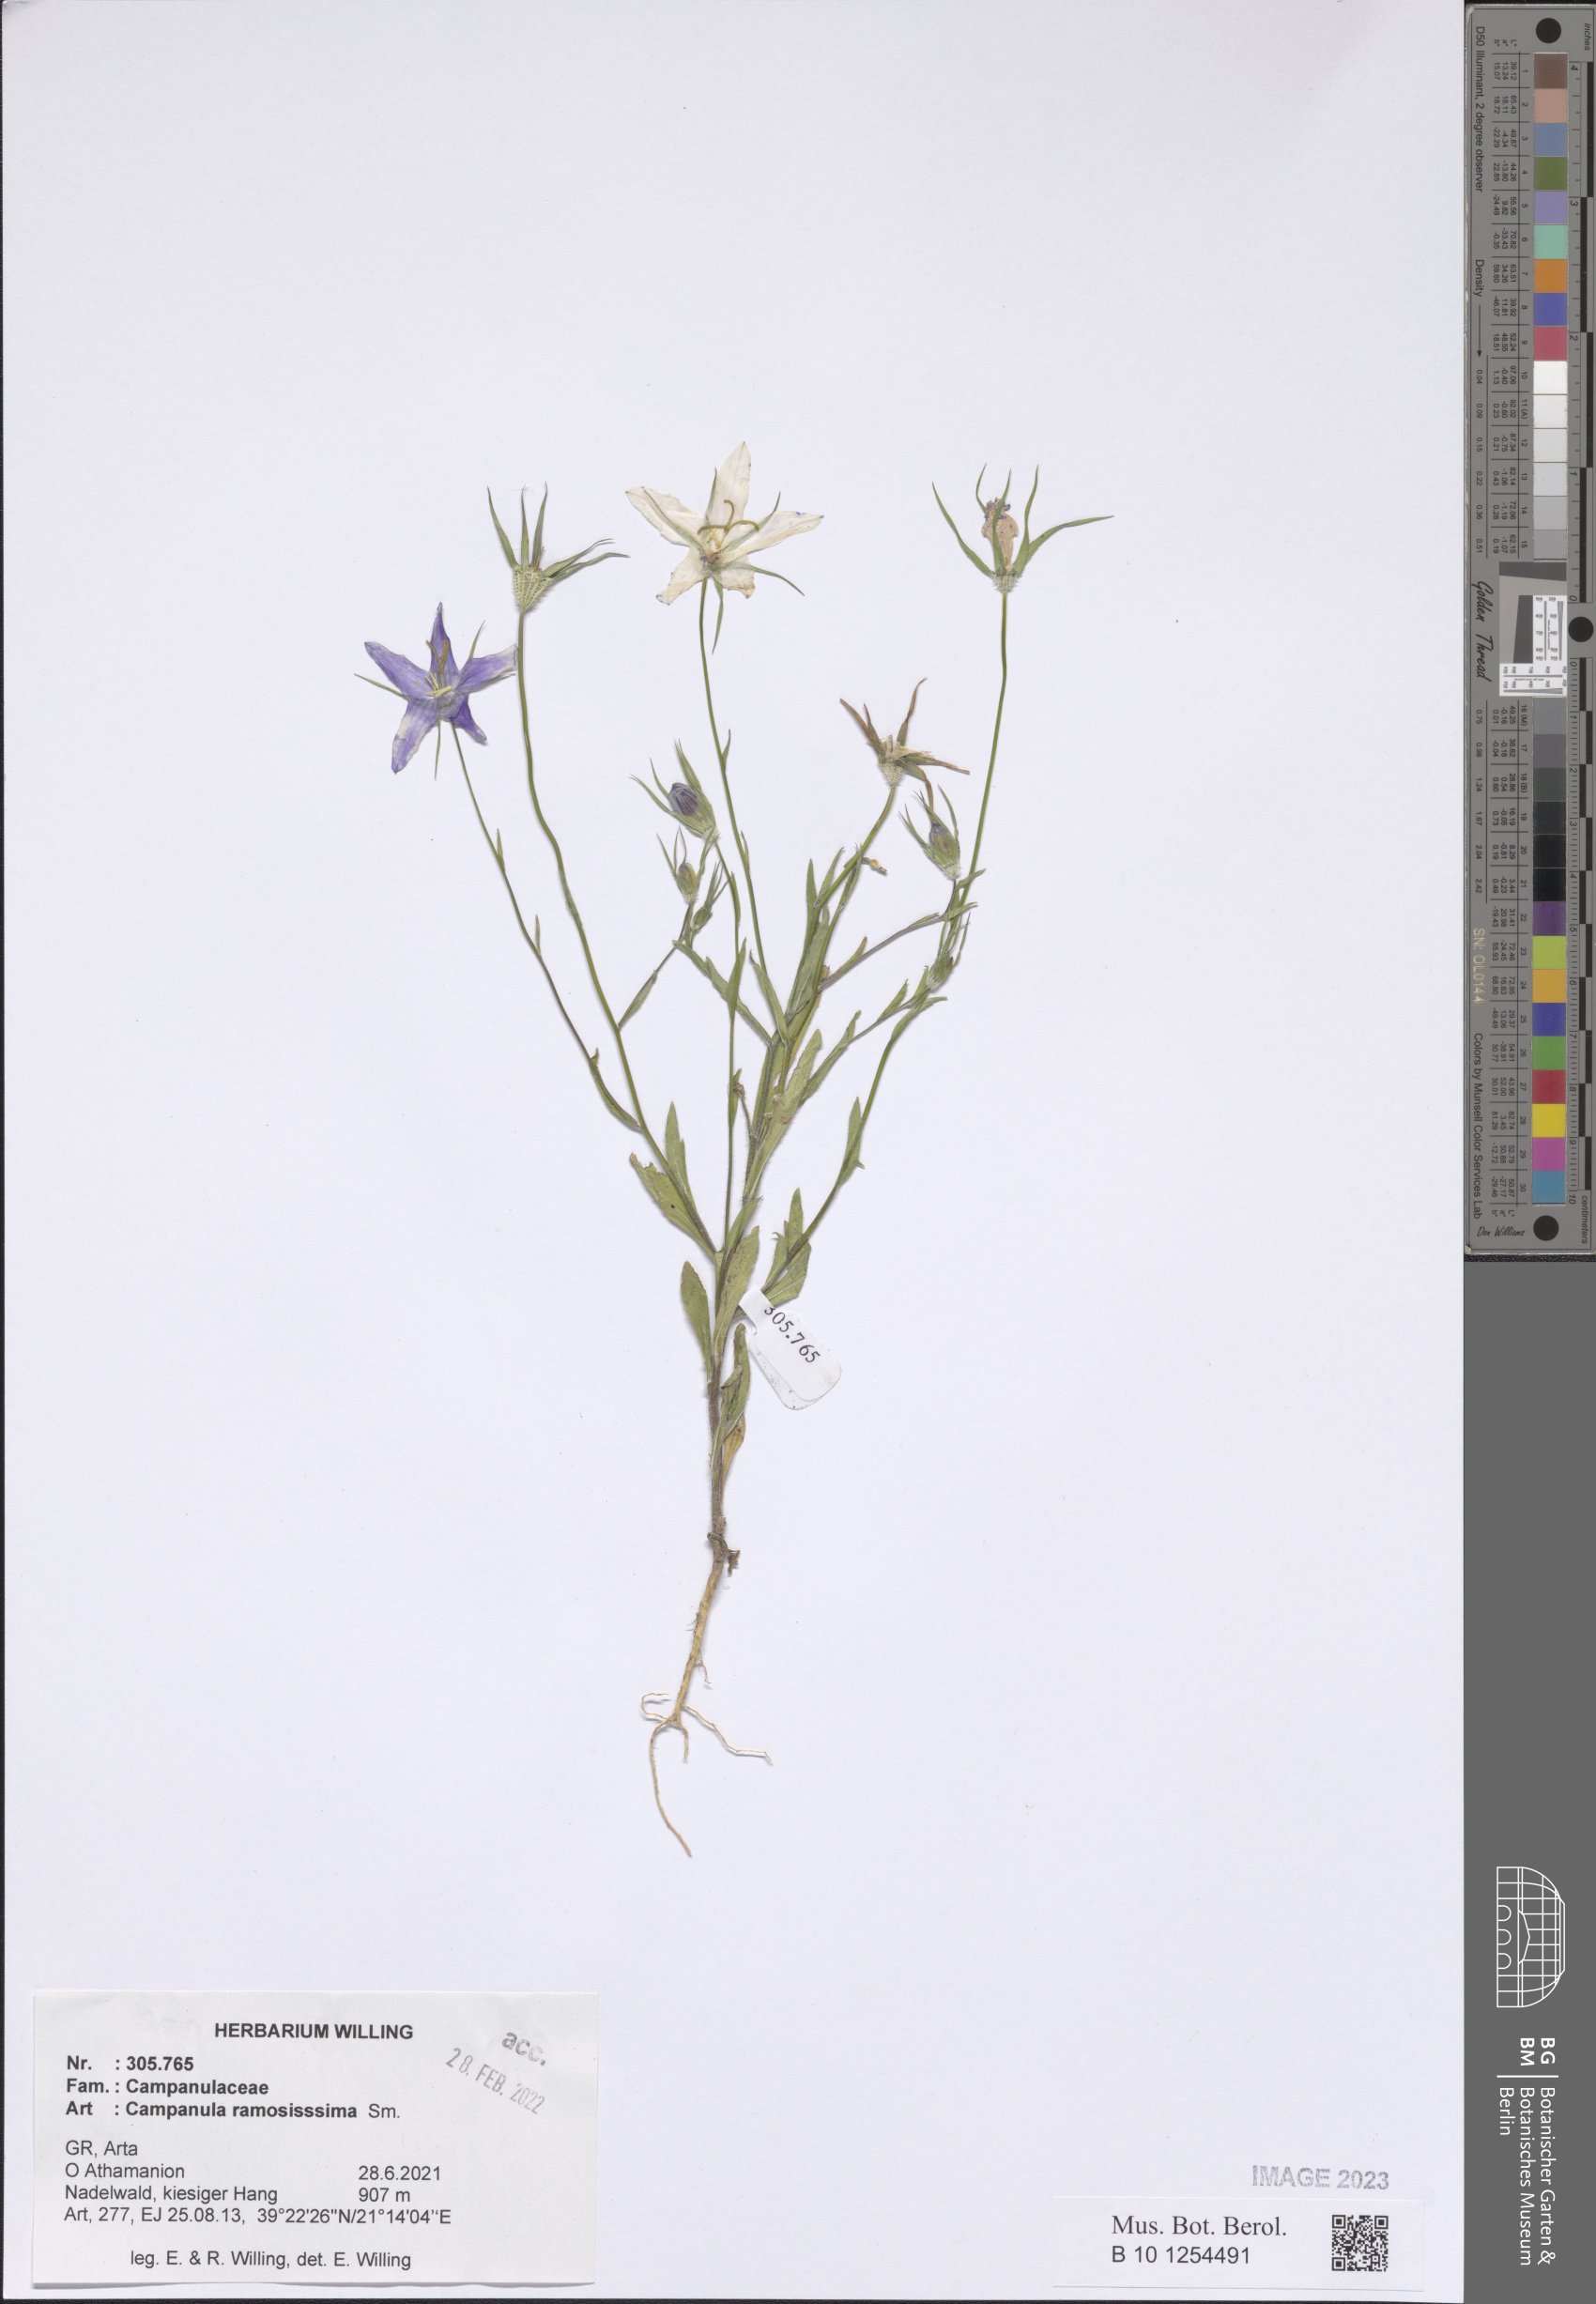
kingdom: Plantae
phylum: Tracheophyta
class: Magnoliopsida
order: Asterales
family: Campanulaceae
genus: Campanula
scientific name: Campanula ramosissima
